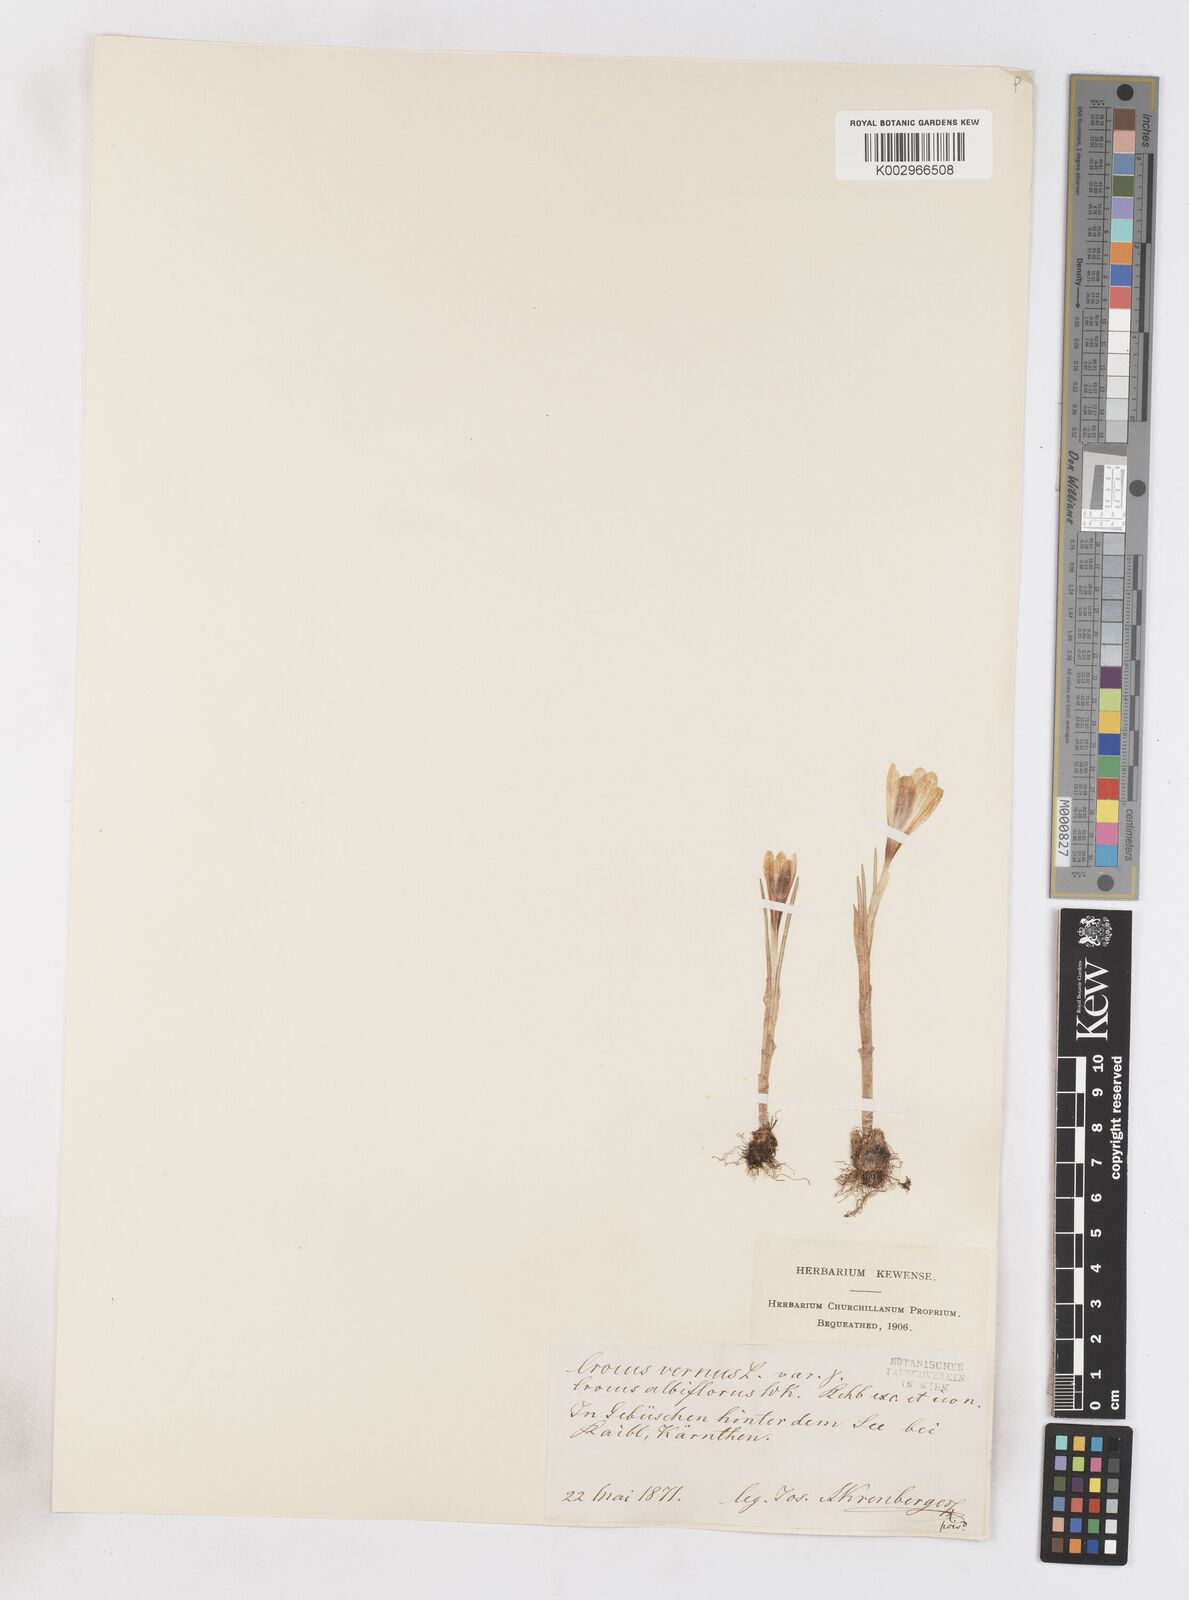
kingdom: Plantae
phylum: Tracheophyta
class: Liliopsida
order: Asparagales
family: Iridaceae
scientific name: Iridaceae
